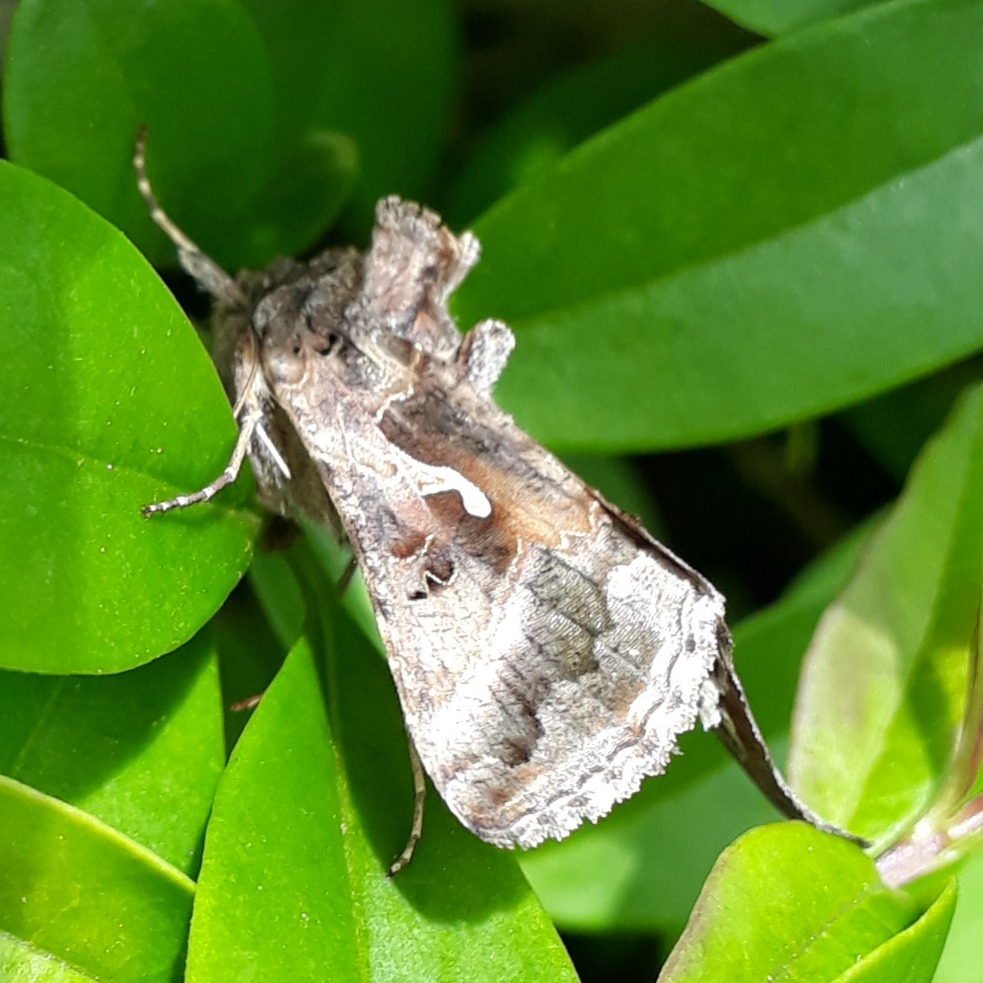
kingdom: Animalia
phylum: Arthropoda
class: Insecta
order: Lepidoptera
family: Noctuidae
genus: Autographa
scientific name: Autographa gamma
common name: Gammaugle
